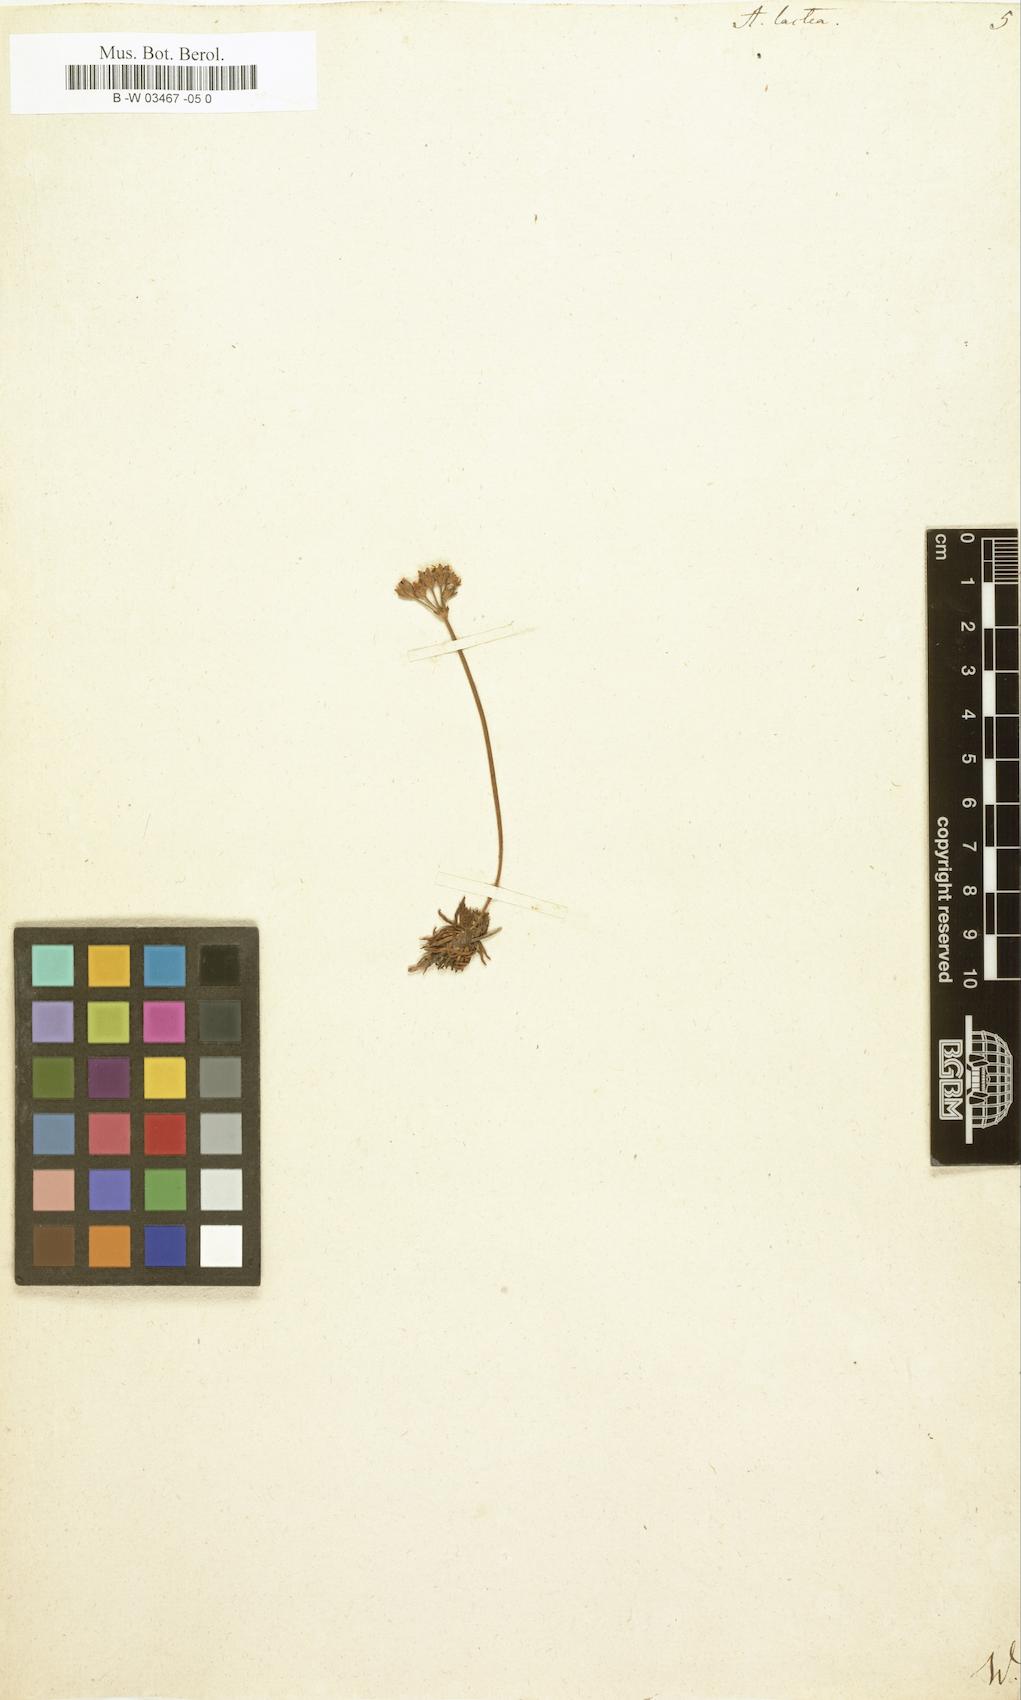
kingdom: Plantae
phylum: Tracheophyta
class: Magnoliopsida
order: Ericales
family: Primulaceae
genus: Androsace
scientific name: Androsace lactea
